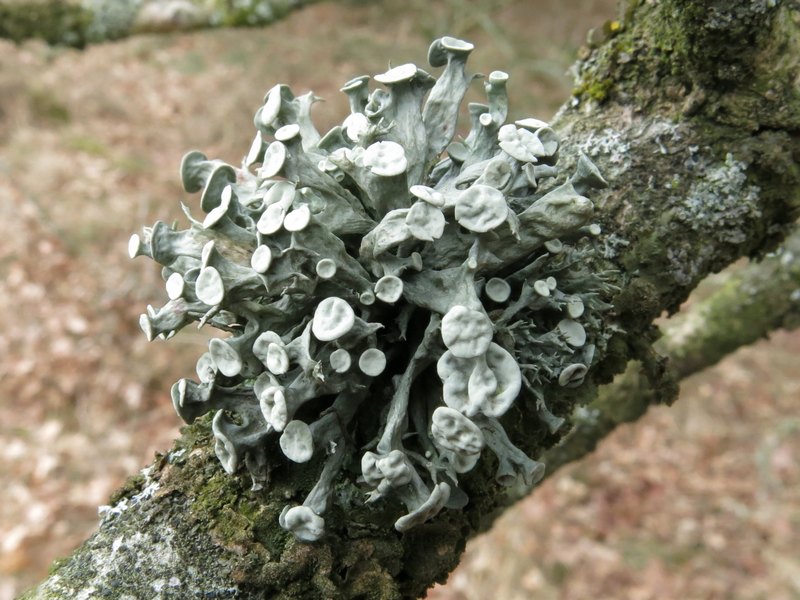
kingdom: Fungi
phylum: Ascomycota
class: Lecanoromycetes
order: Lecanorales
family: Ramalinaceae
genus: Ramalina
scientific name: Ramalina fastigiata
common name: tue-grenlav
